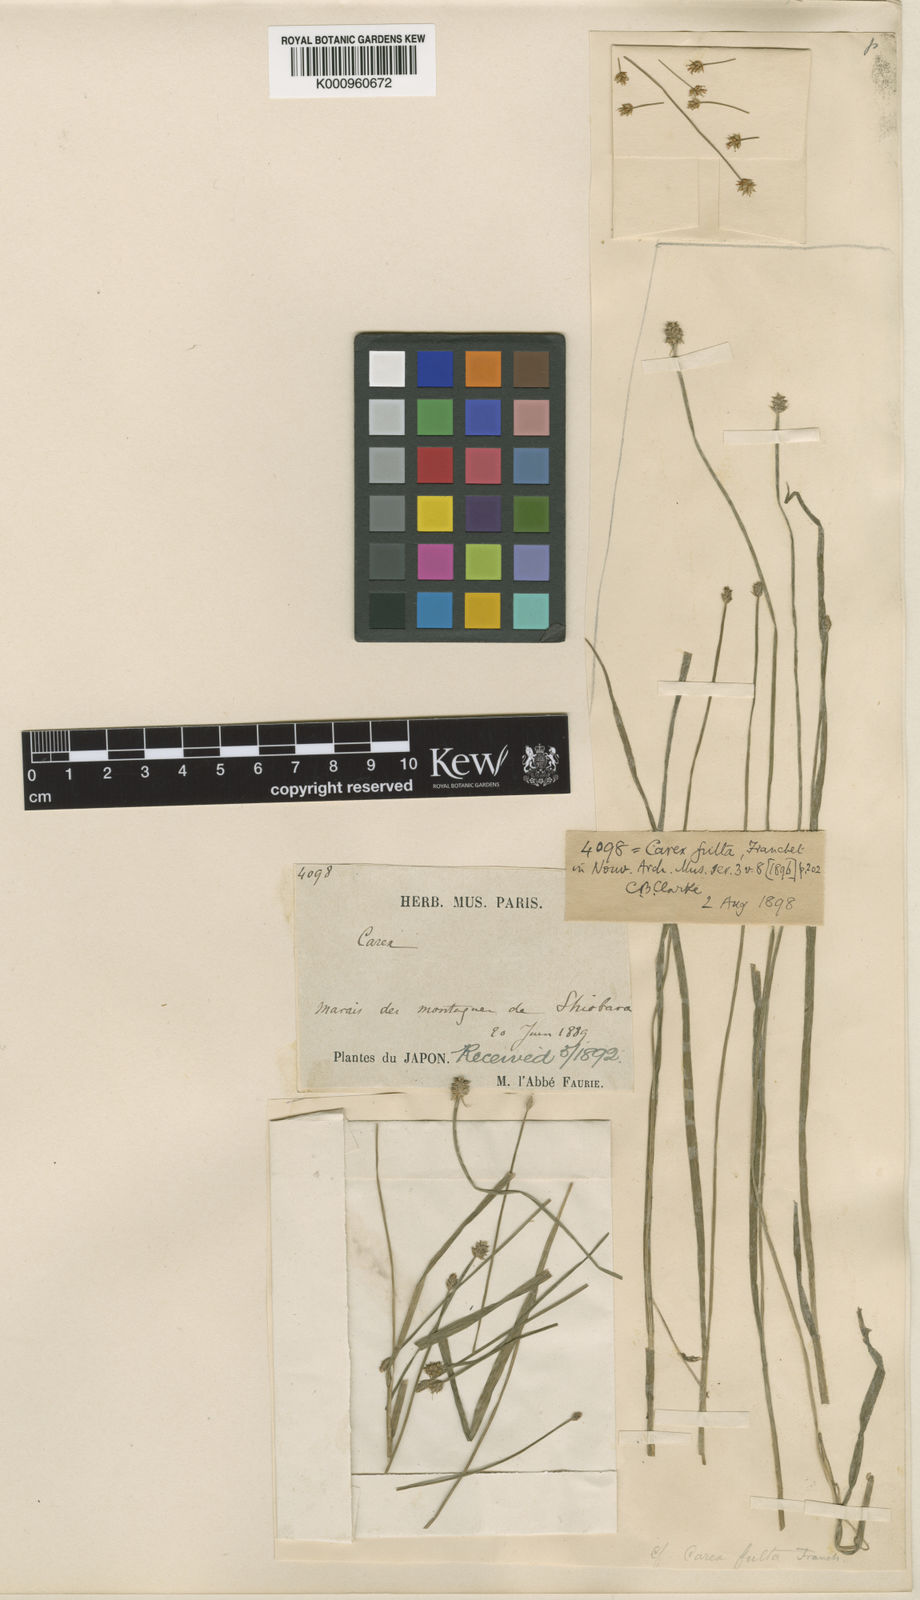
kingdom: Plantae
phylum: Tracheophyta
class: Liliopsida
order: Poales
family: Cyperaceae
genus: Carex
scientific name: Carex fulta
